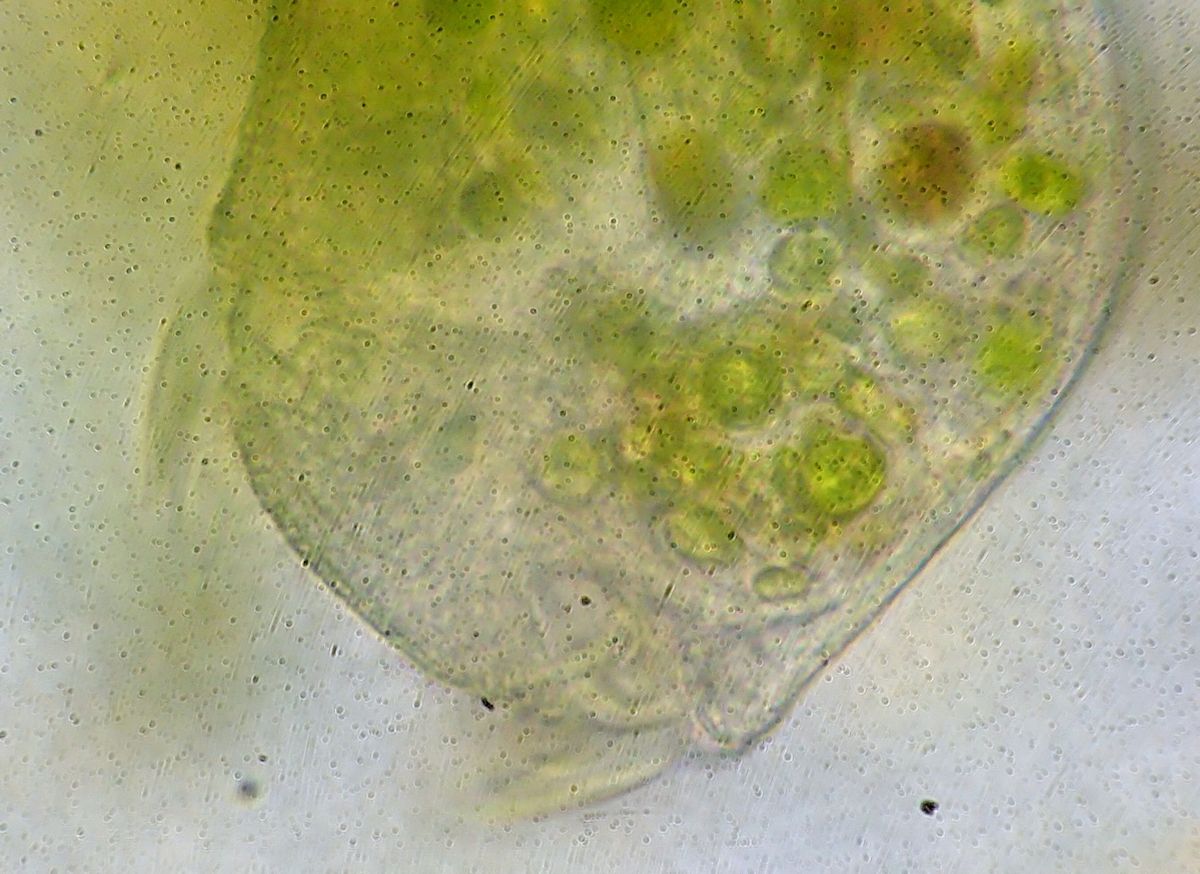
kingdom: Chromista
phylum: Ciliophora
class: Heterotrichea
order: Heterotrichida
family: Stentoridae
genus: Stentor
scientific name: Stentor roeseli
